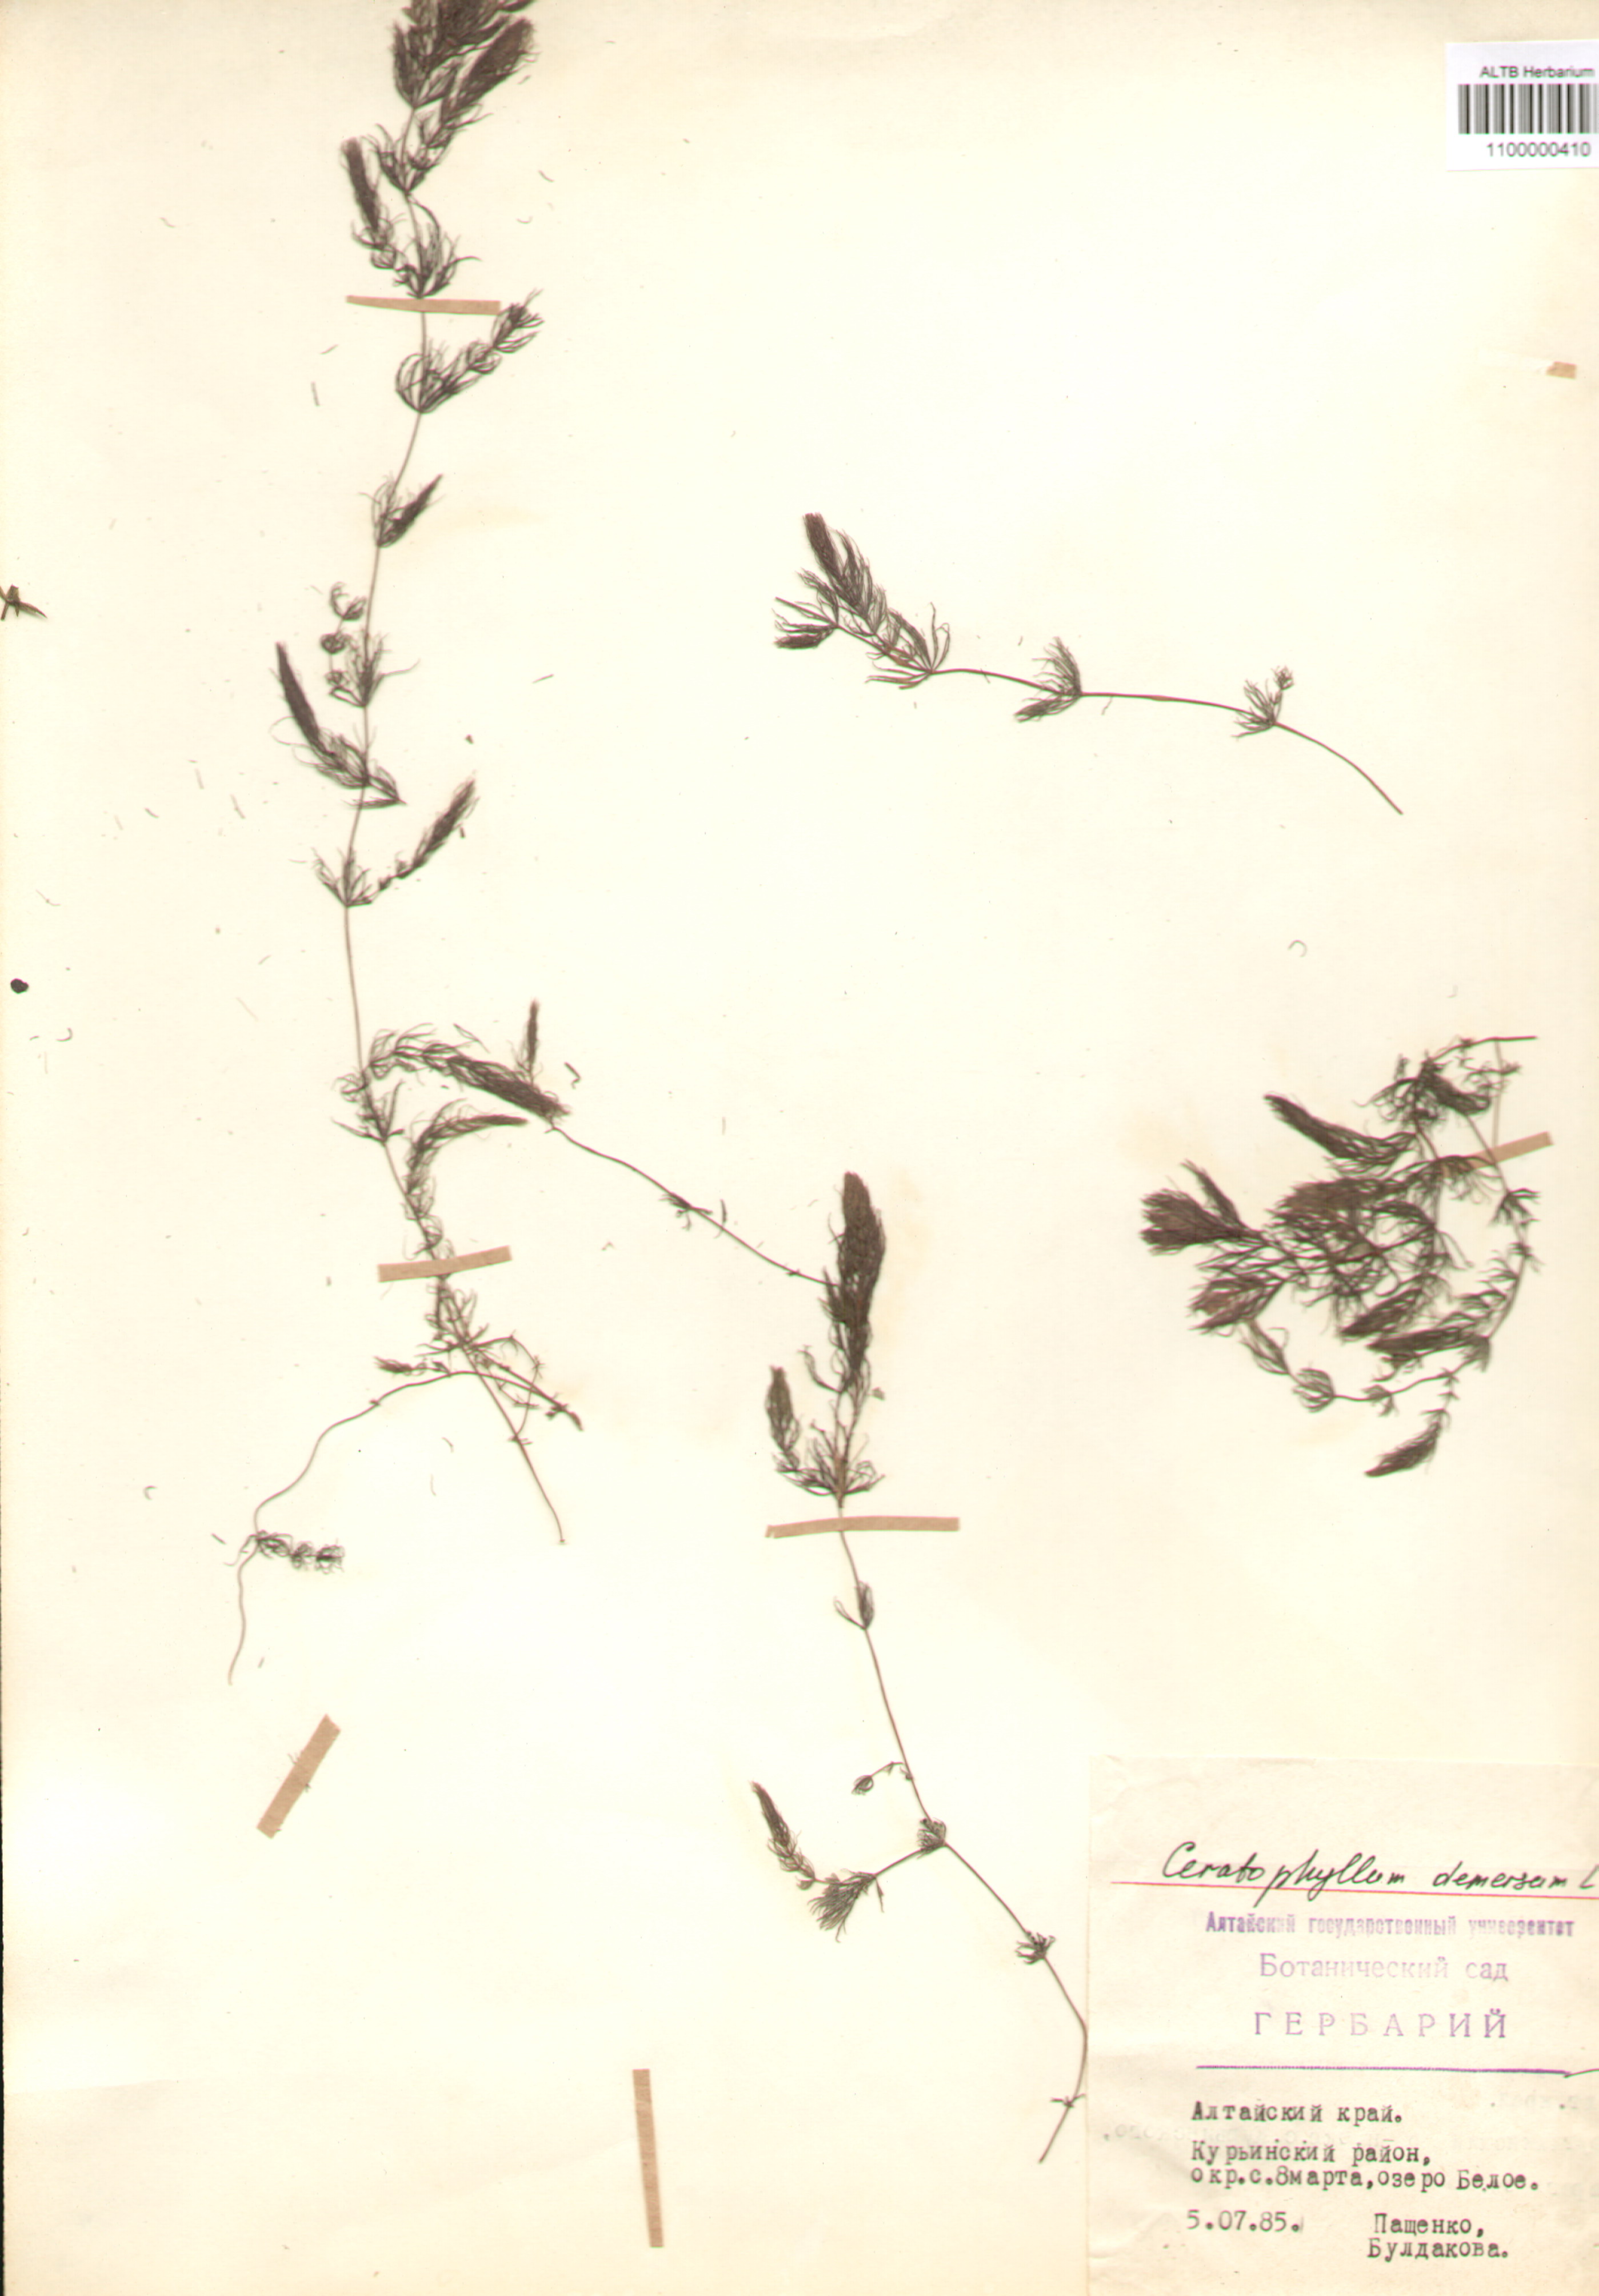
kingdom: Plantae
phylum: Tracheophyta
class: Magnoliopsida
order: Ceratophyllales
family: Ceratophyllaceae
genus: Ceratophyllum
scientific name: Ceratophyllum demersum
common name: Rigid hornwort
